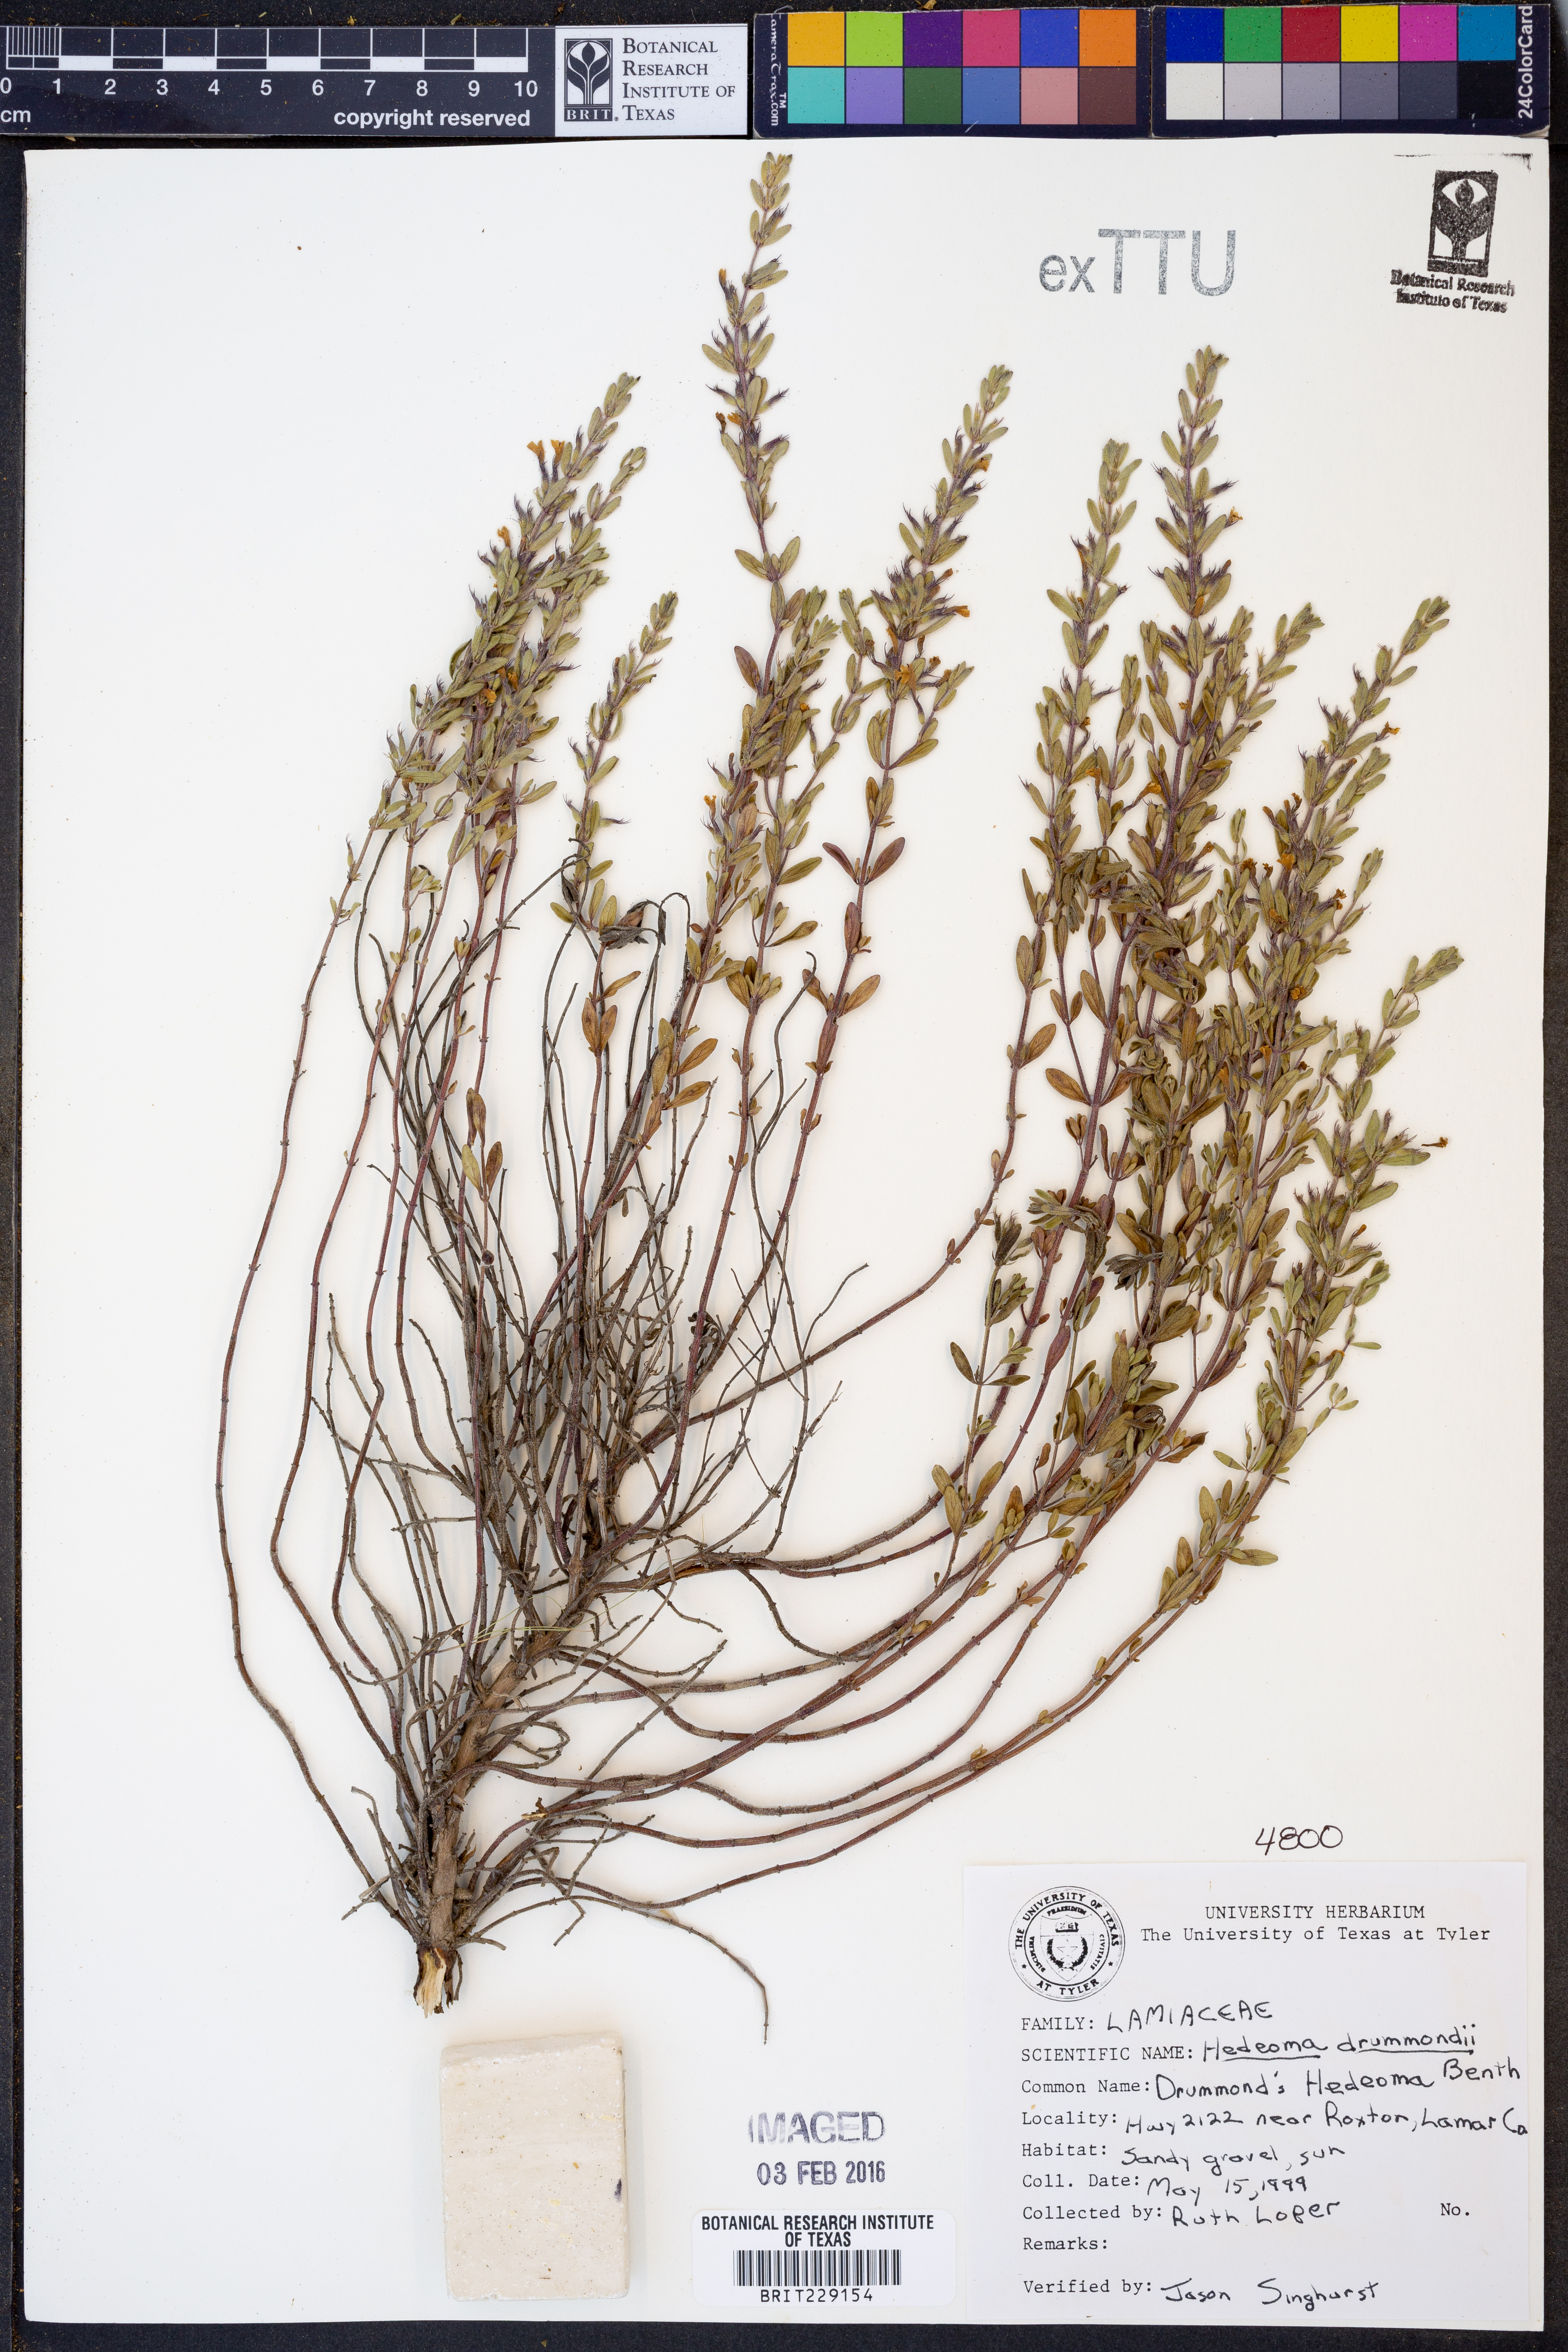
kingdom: Plantae
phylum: Tracheophyta
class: Magnoliopsida
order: Lamiales
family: Lamiaceae
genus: Hedeoma
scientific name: Hedeoma drummondii
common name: New mexico pennyroyal
